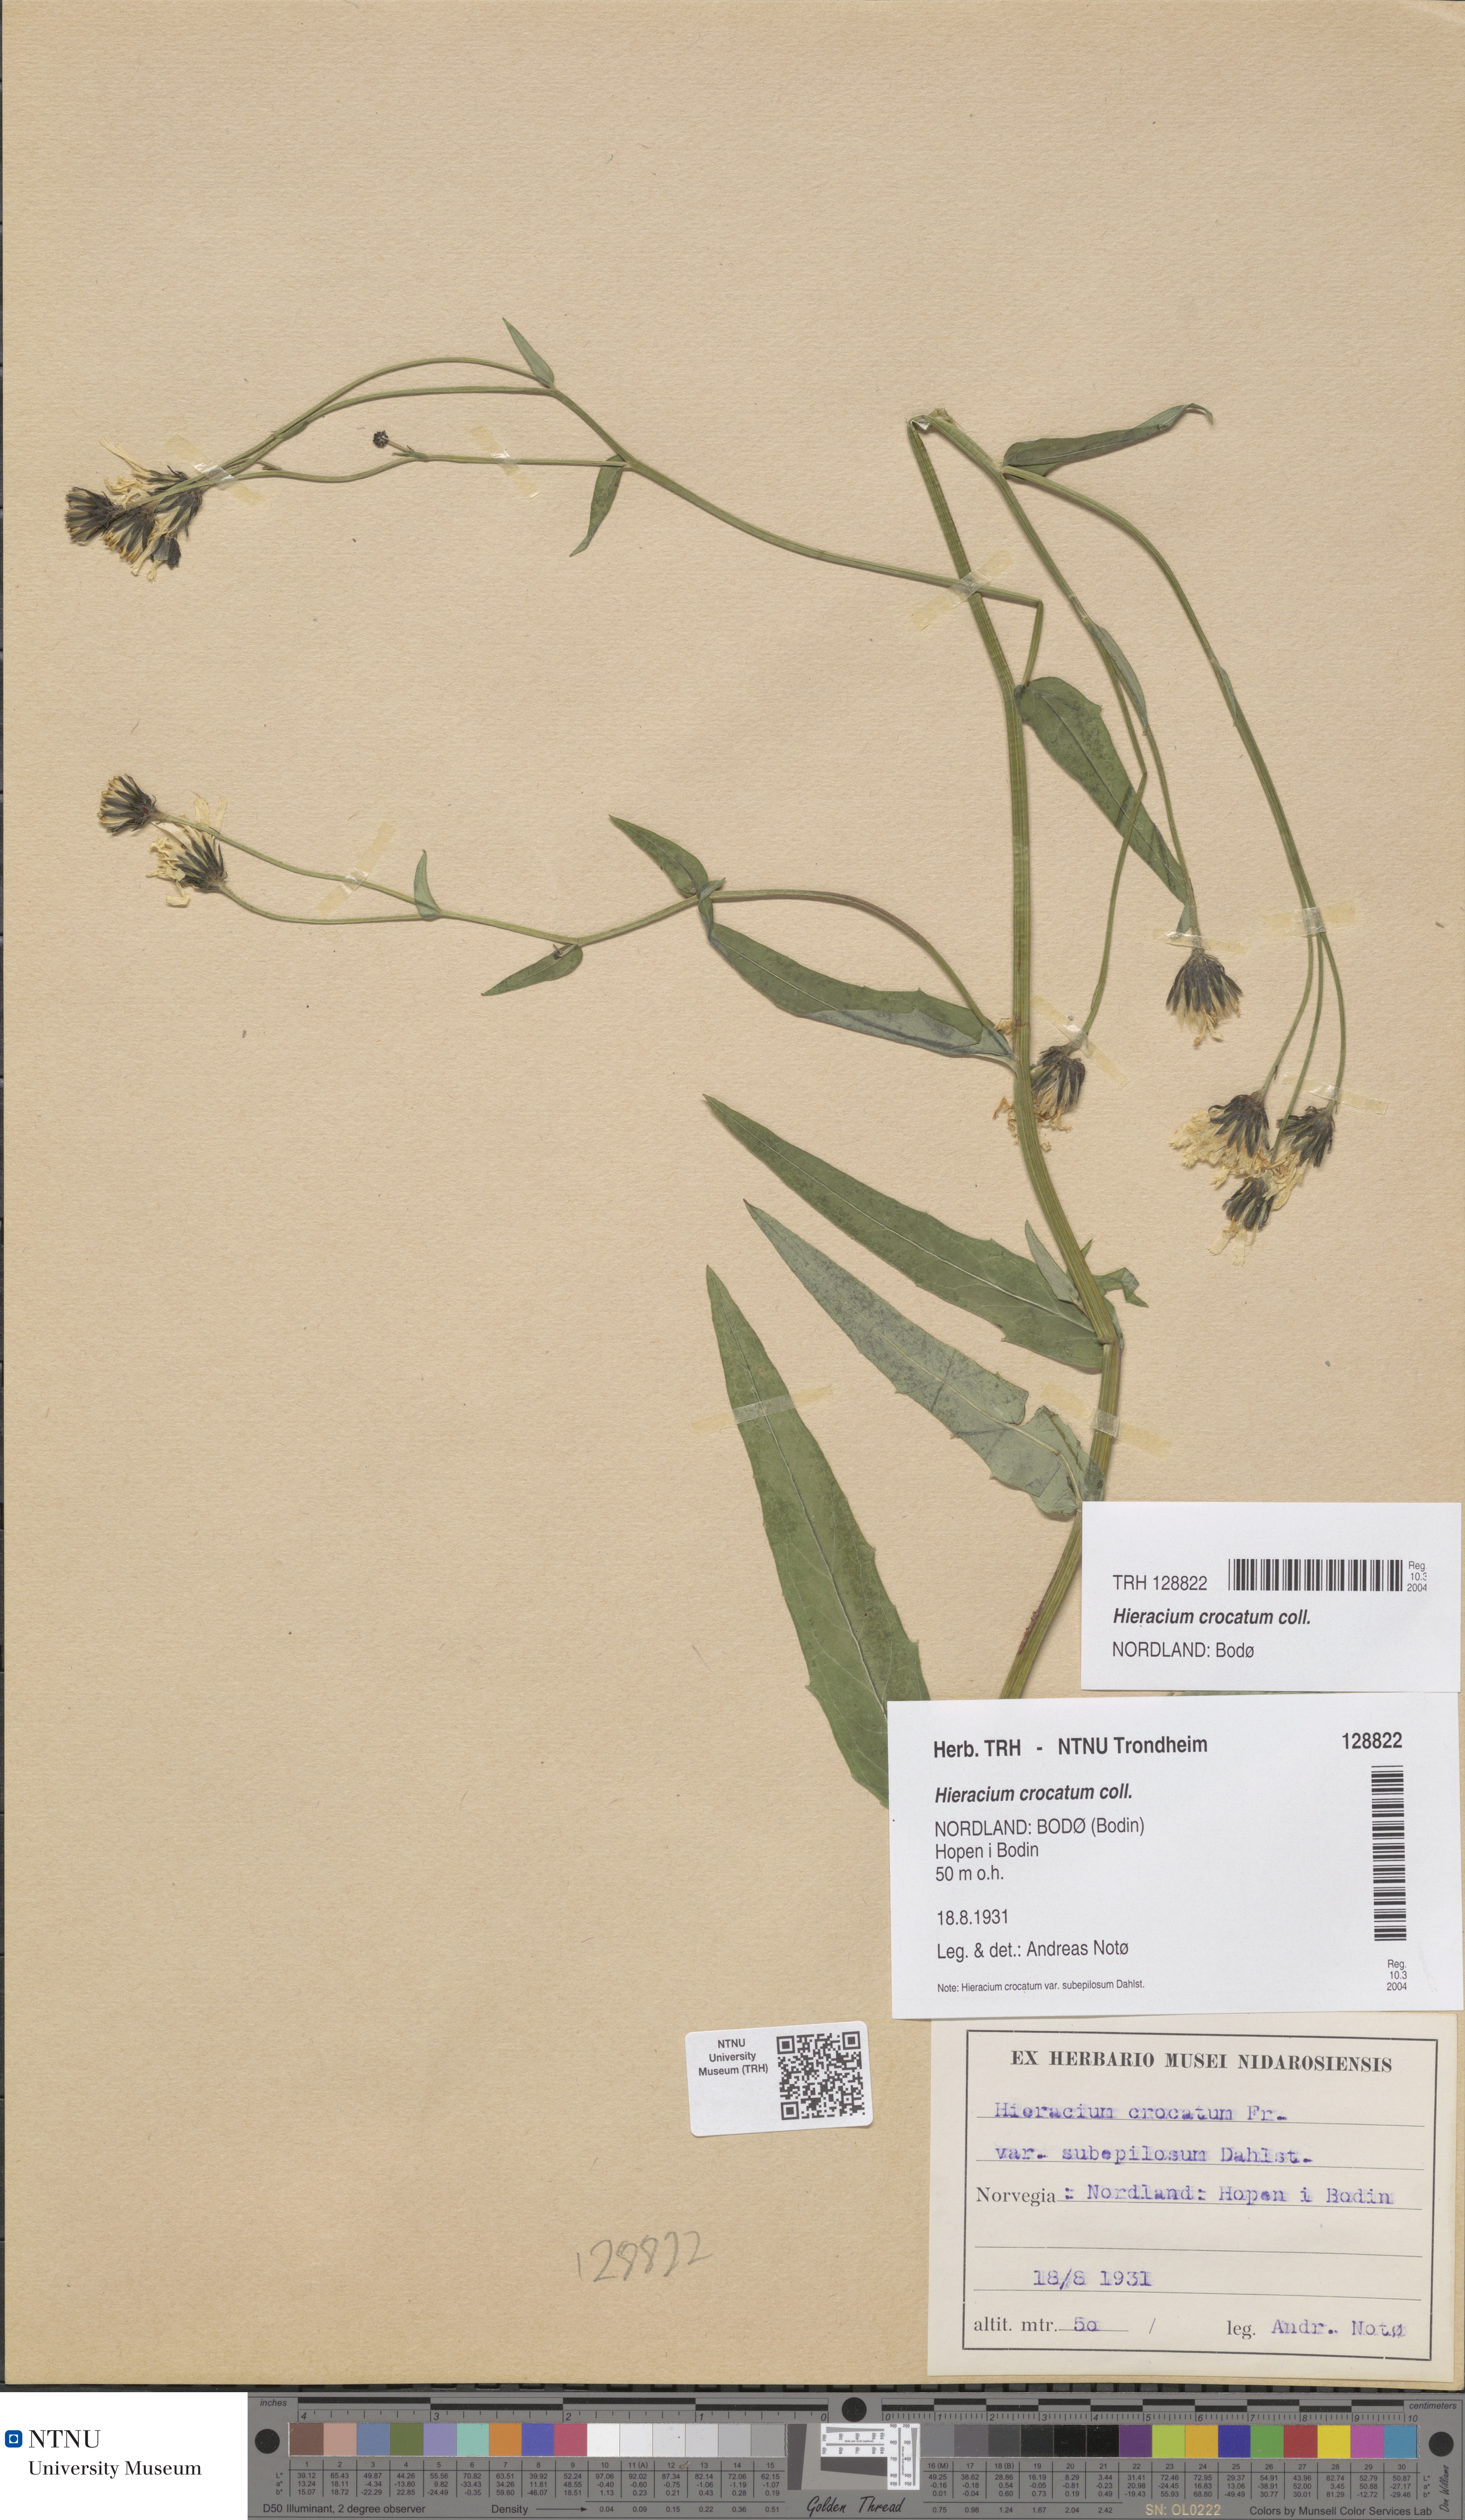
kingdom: Plantae
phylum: Tracheophyta
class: Magnoliopsida
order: Asterales
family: Asteraceae
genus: Hieracium
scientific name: Hieracium crocatum
